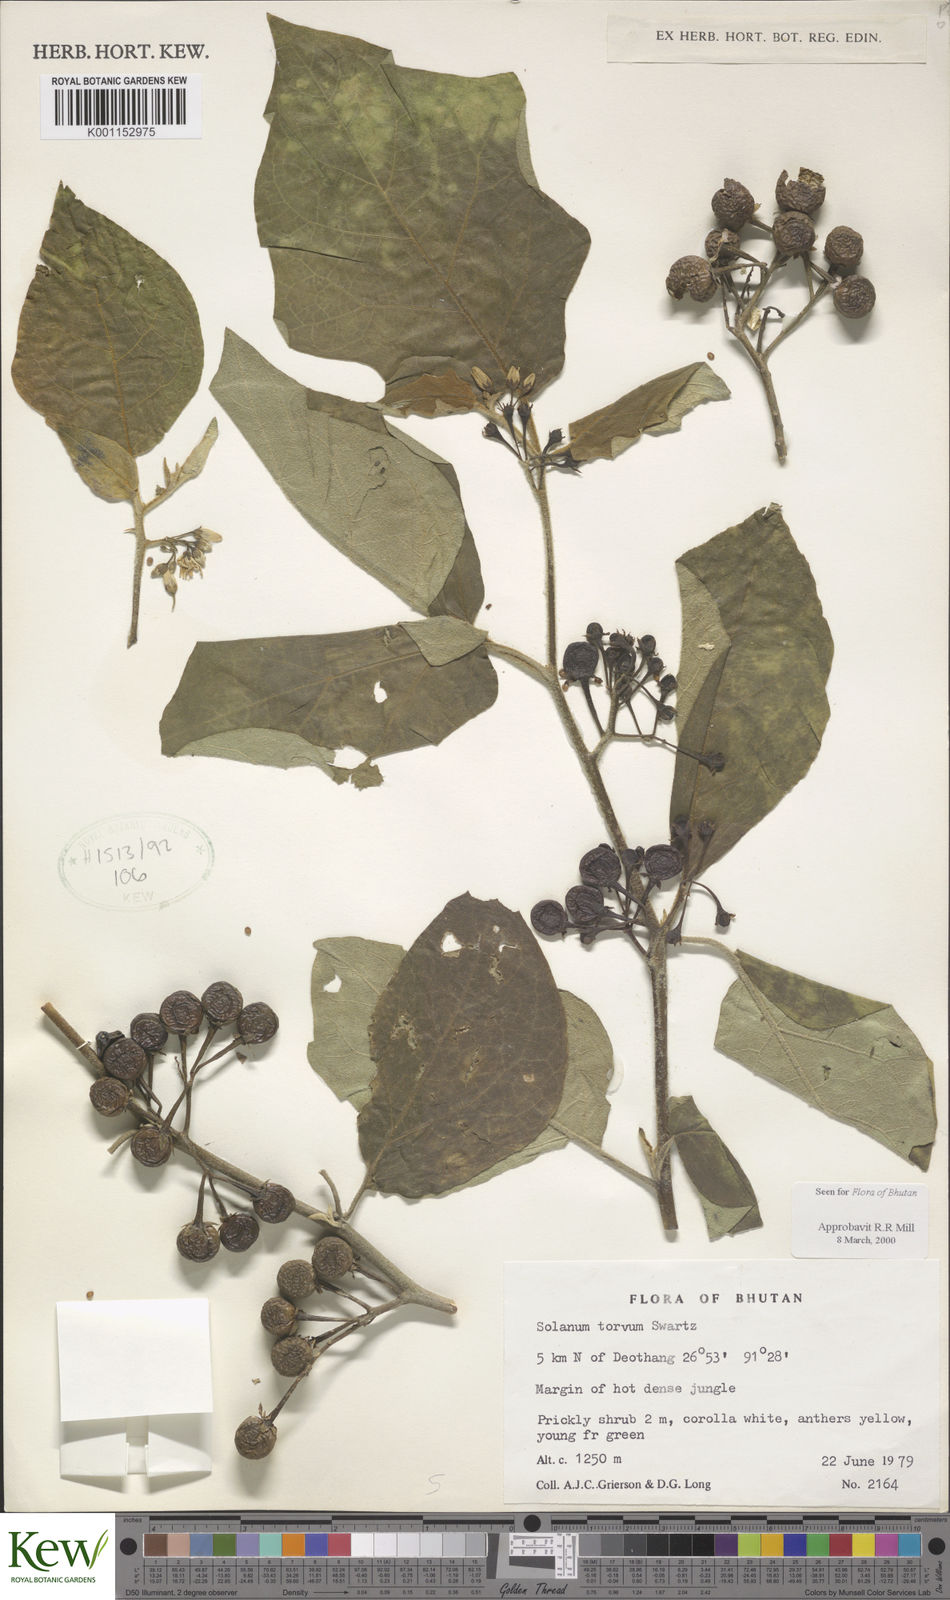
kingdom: Plantae
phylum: Tracheophyta
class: Magnoliopsida
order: Solanales
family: Solanaceae
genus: Solanum
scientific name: Solanum torvum
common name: Turkey berry
